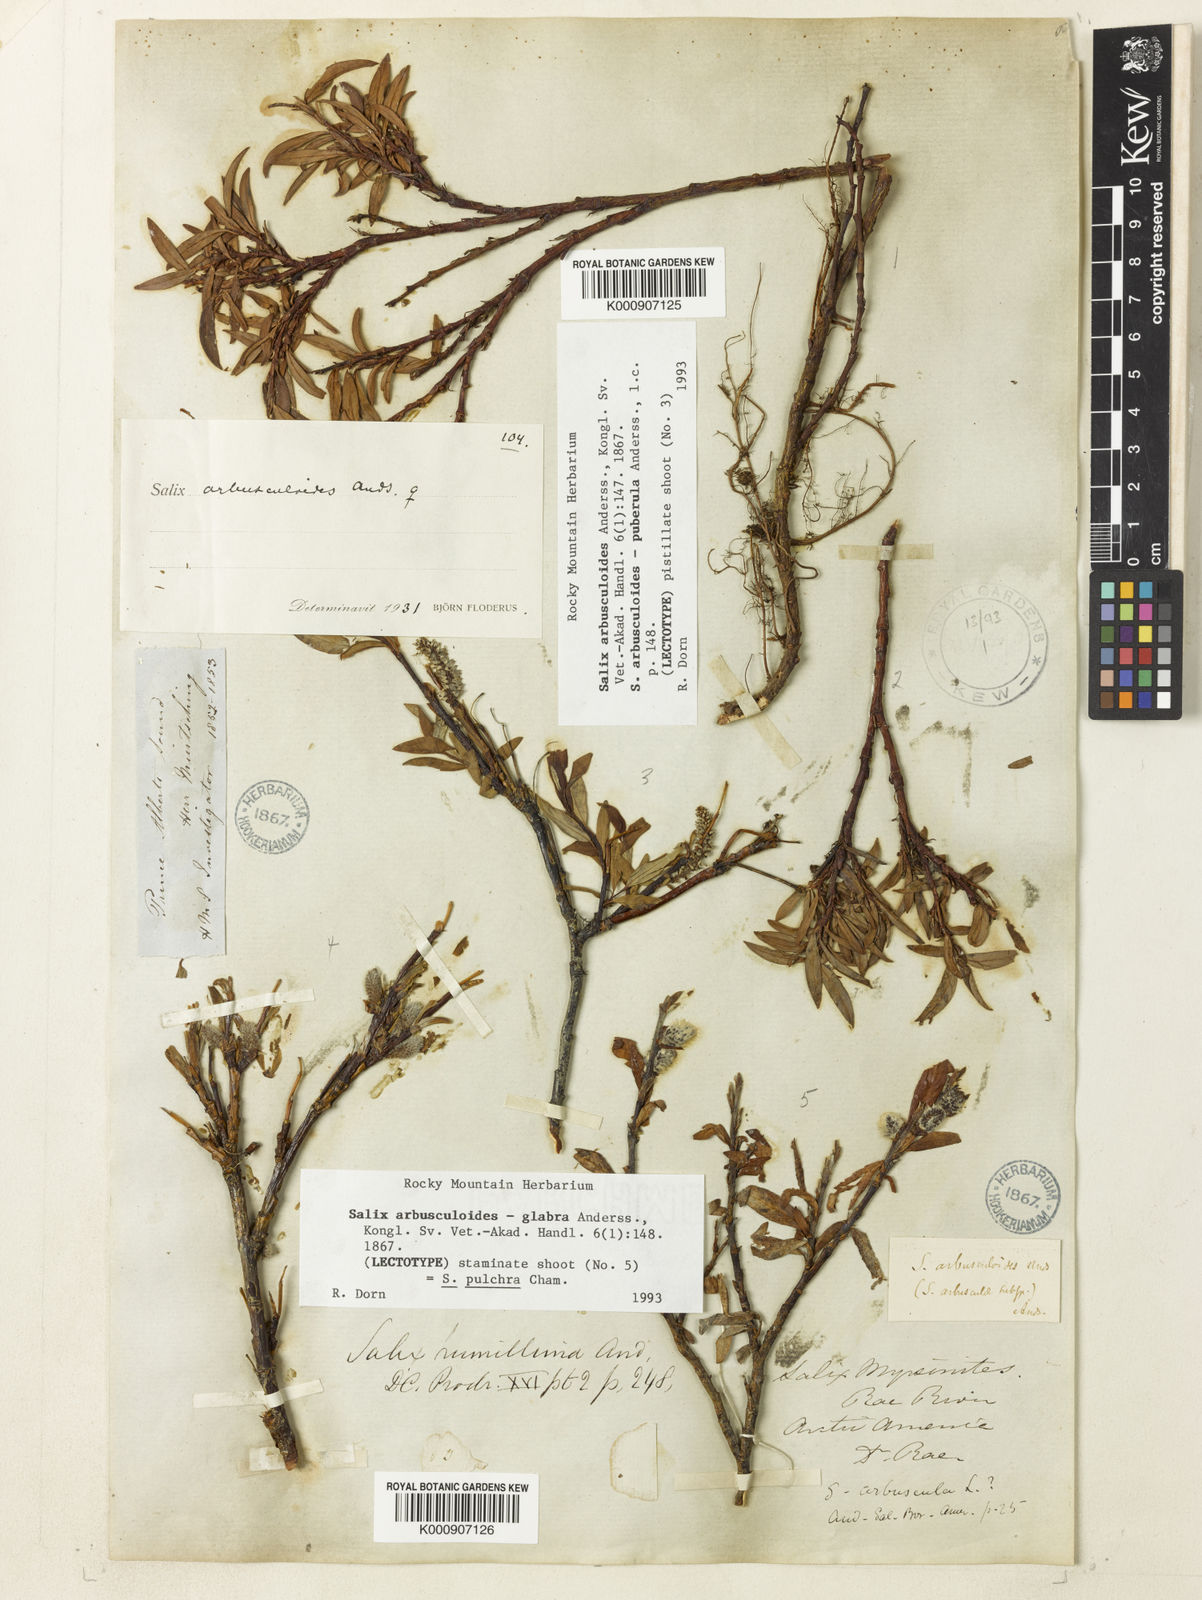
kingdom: Plantae
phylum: Tracheophyta
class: Magnoliopsida
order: Malpighiales
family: Salicaceae
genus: Salix
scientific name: Salix arbusculoides
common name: Little-tree willow
